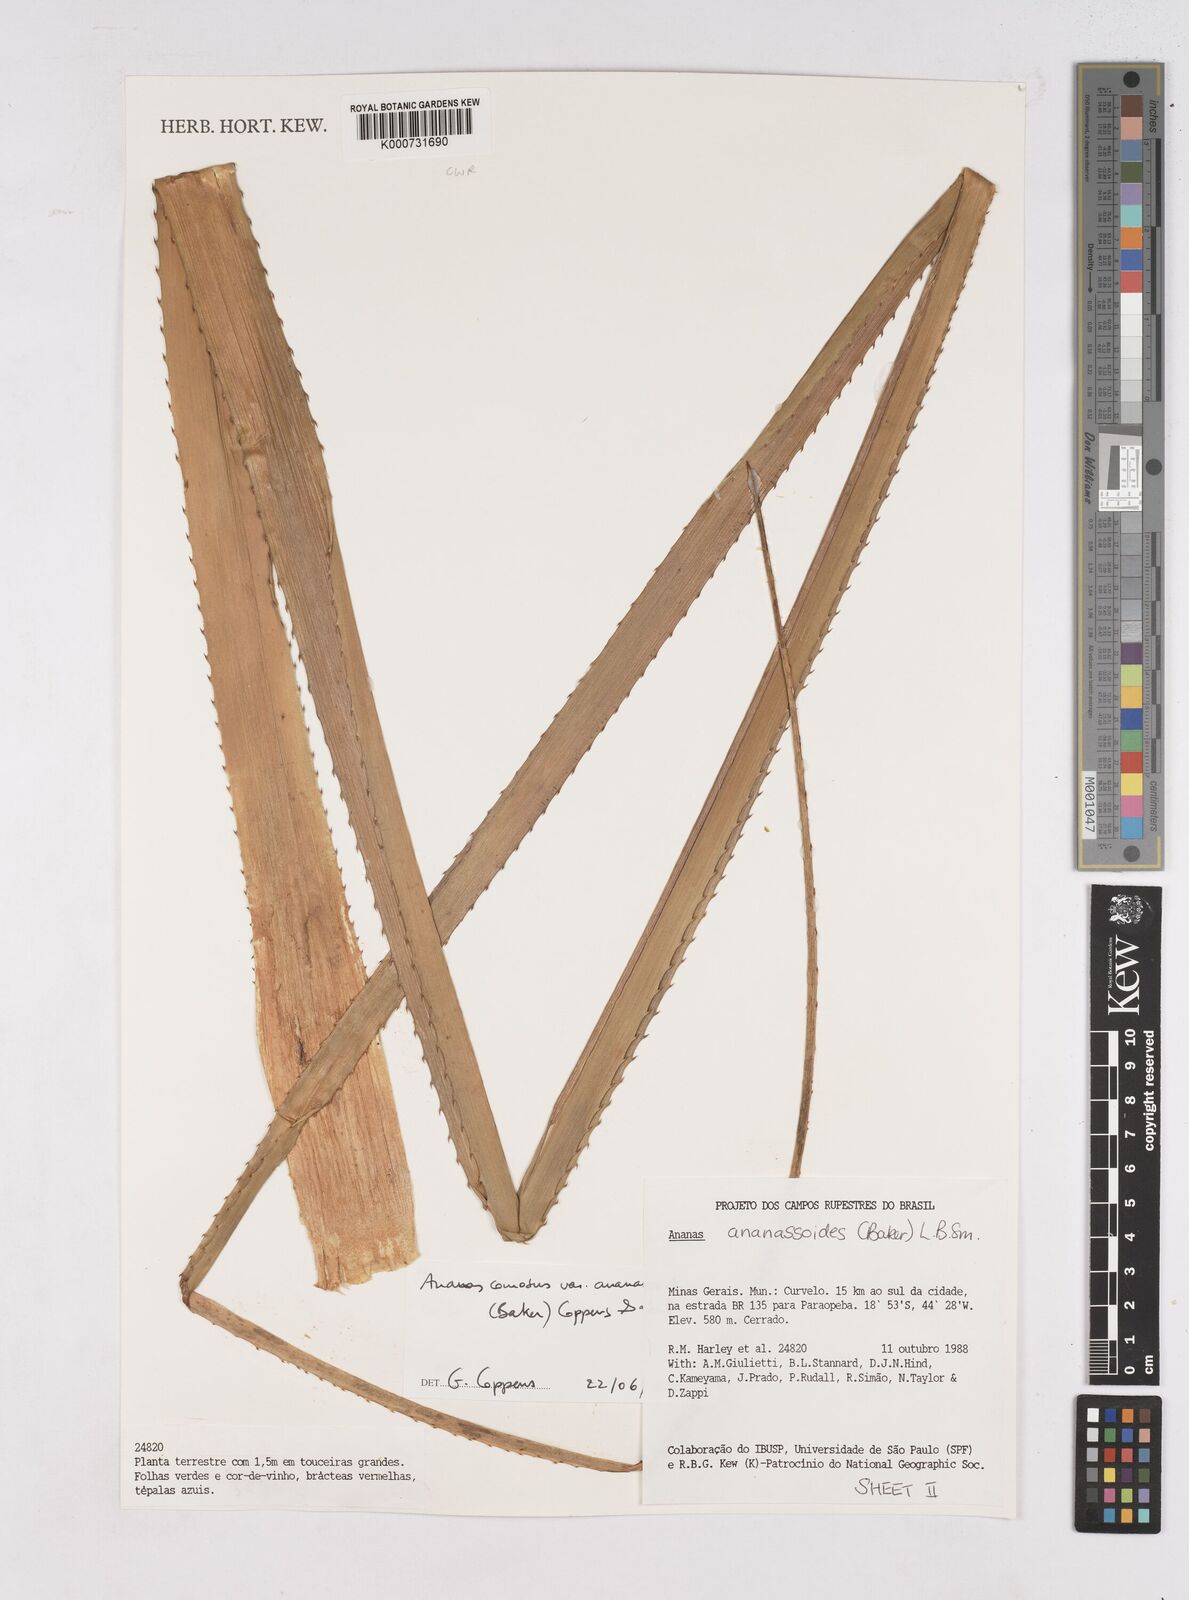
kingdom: Plantae
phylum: Tracheophyta
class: Liliopsida
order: Poales
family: Bromeliaceae
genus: Ananas
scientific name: Ananas comosus
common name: Pineapple
